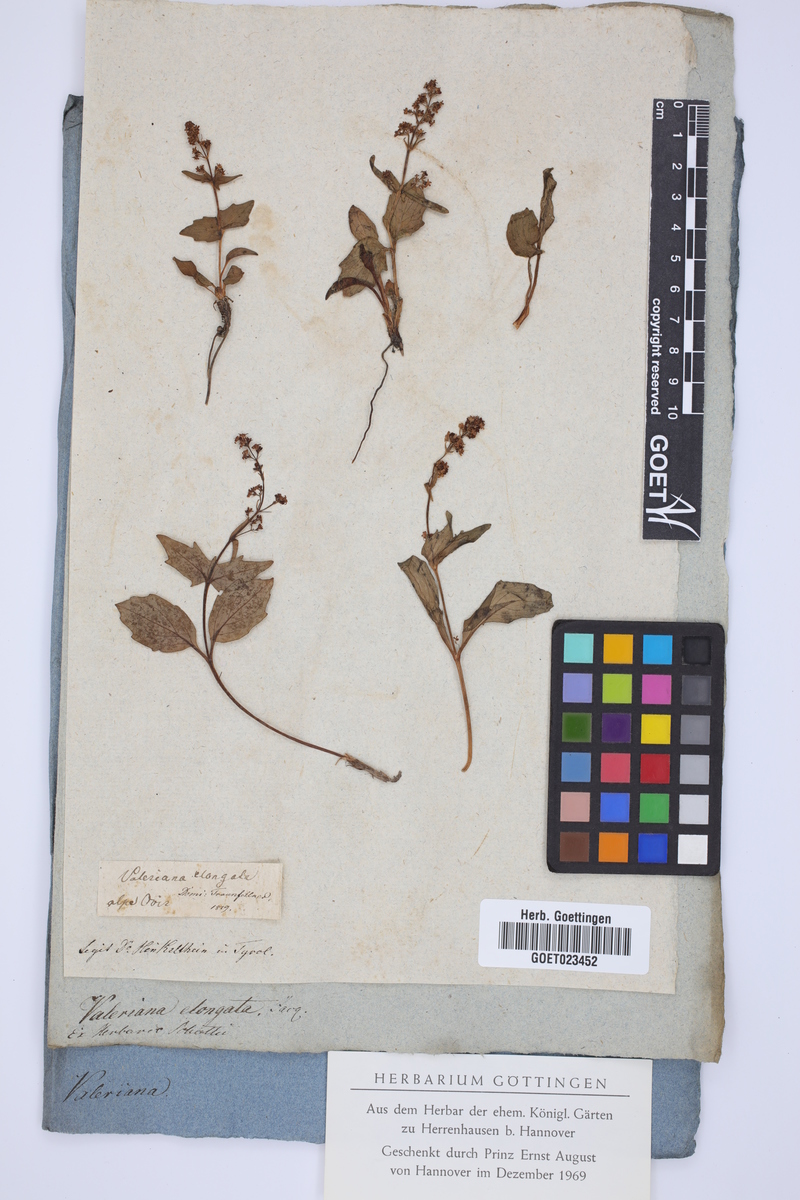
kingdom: Plantae
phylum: Tracheophyta
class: Magnoliopsida
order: Dipsacales
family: Caprifoliaceae
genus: Valeriana
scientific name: Valeriana elongata
